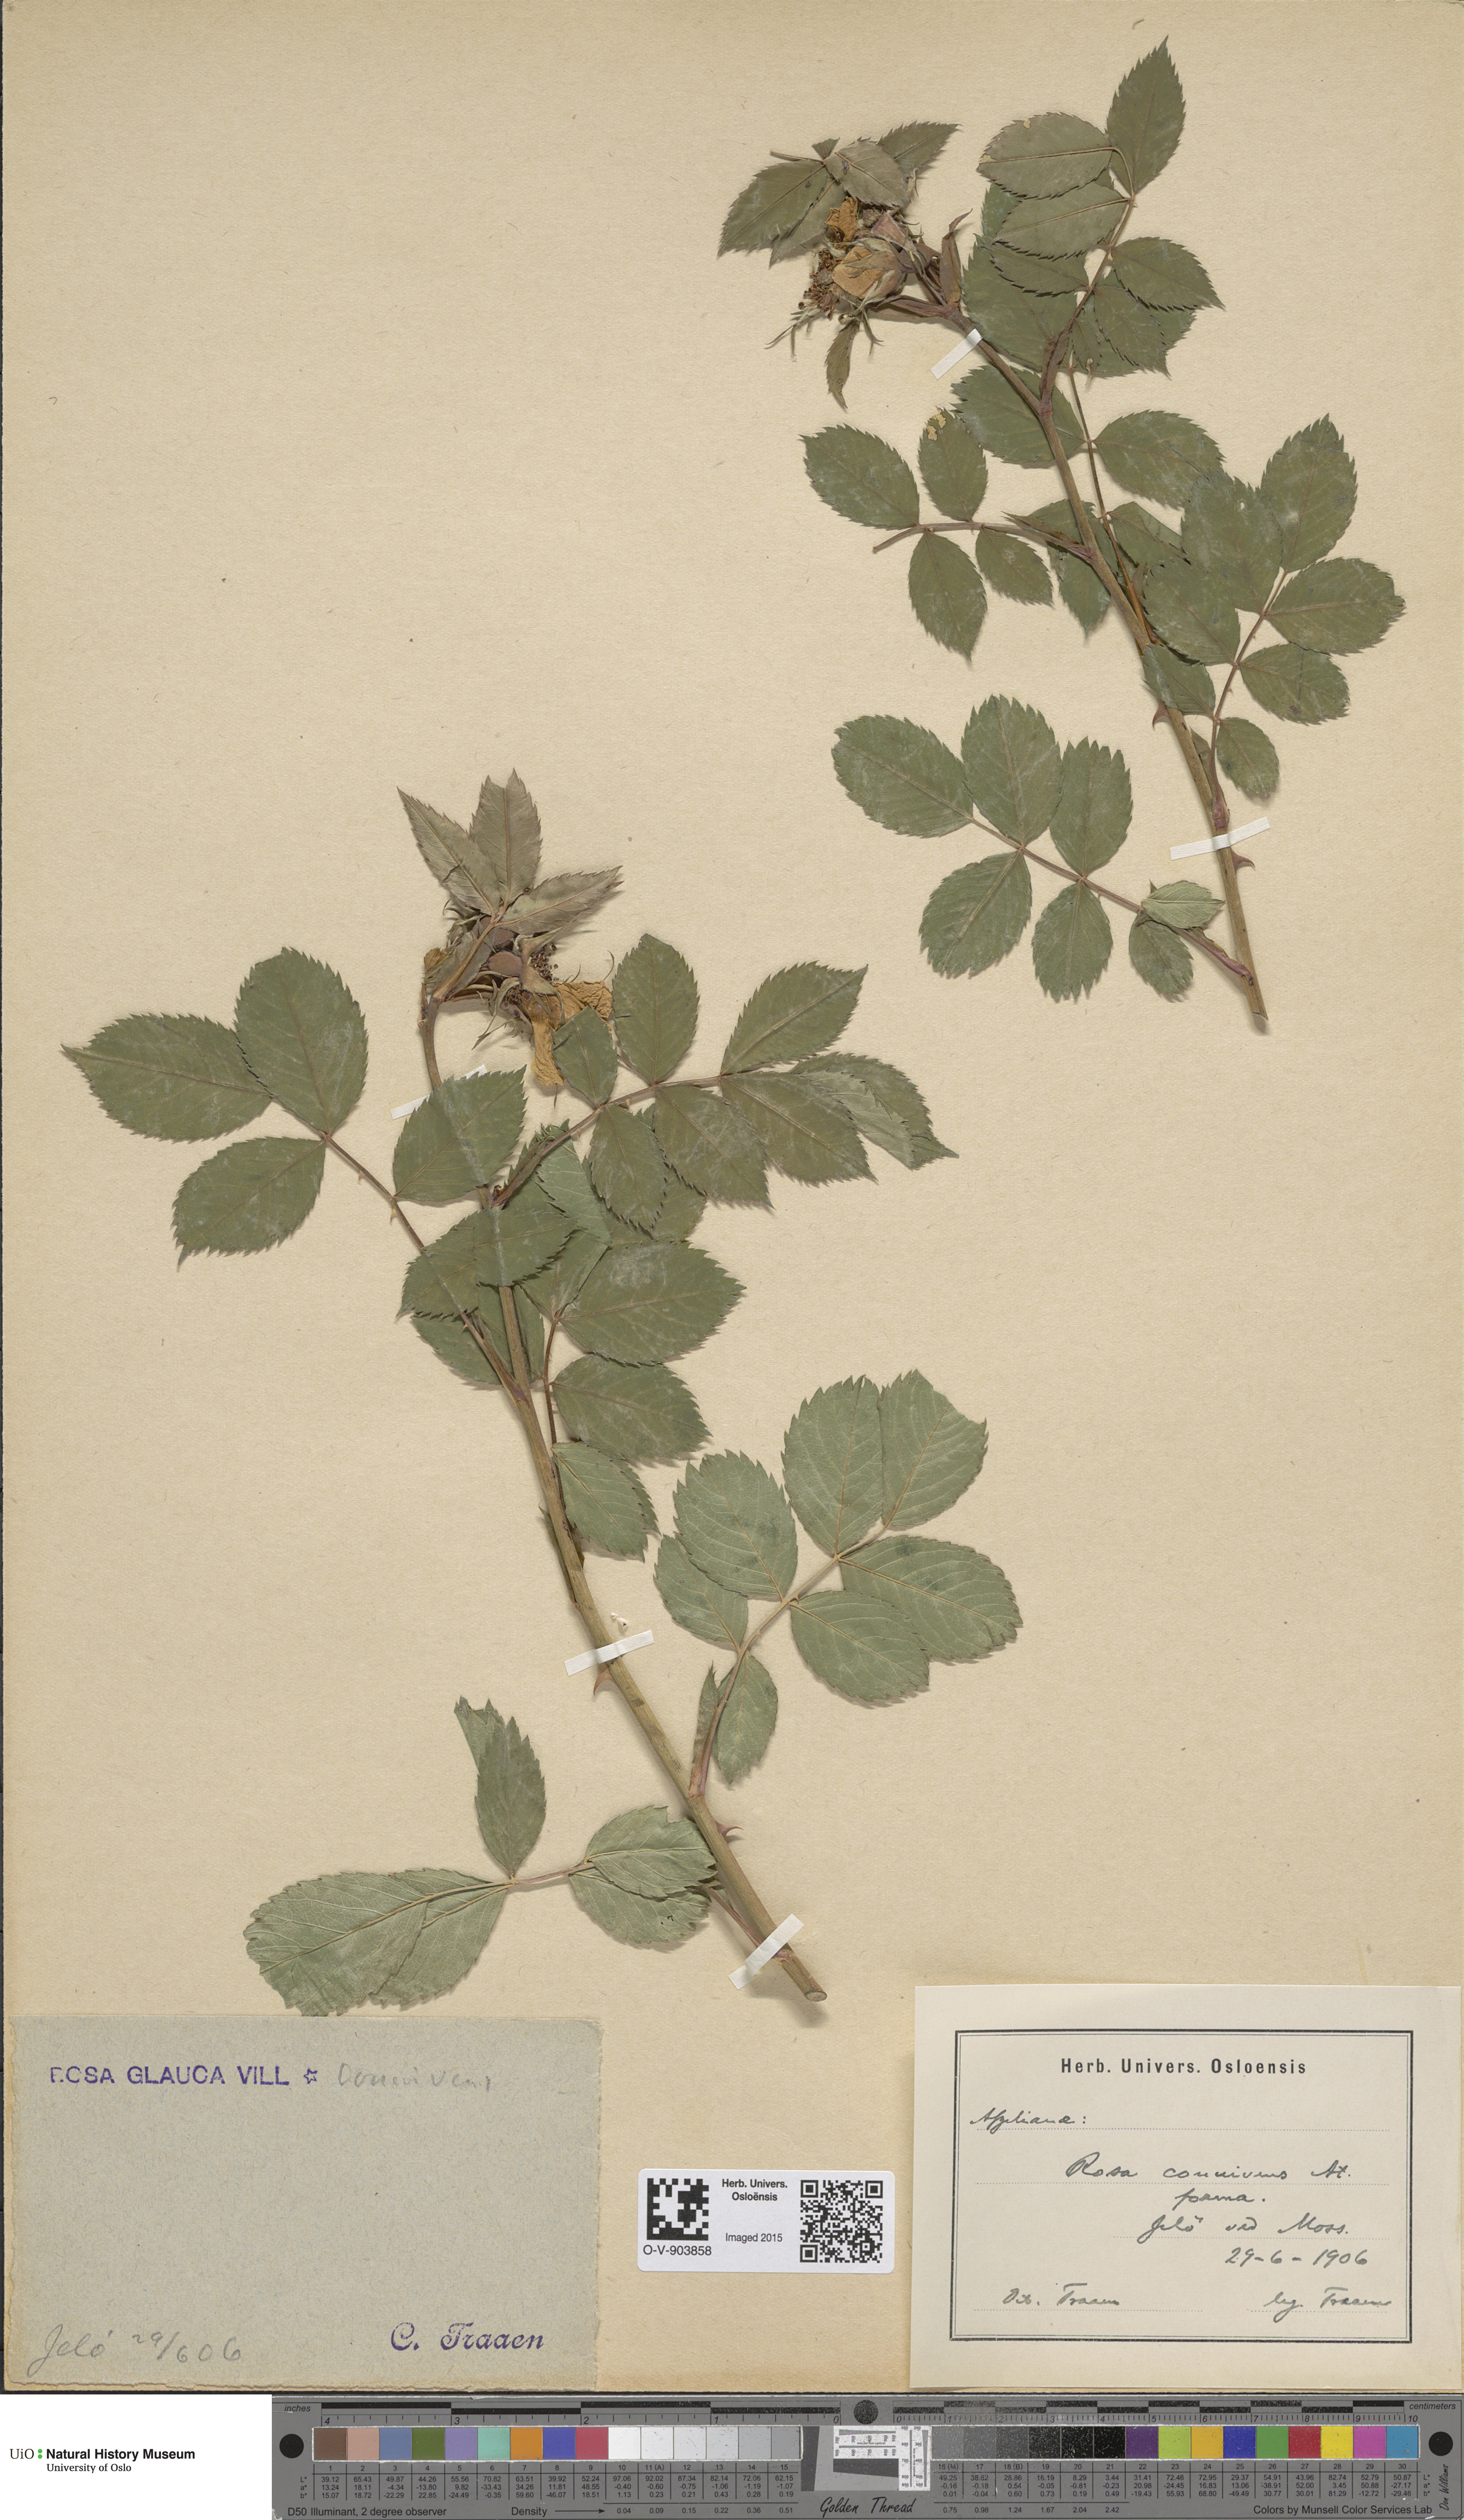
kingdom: Plantae
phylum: Tracheophyta
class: Magnoliopsida
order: Rosales
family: Rosaceae
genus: Rosa
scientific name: Rosa connivens
